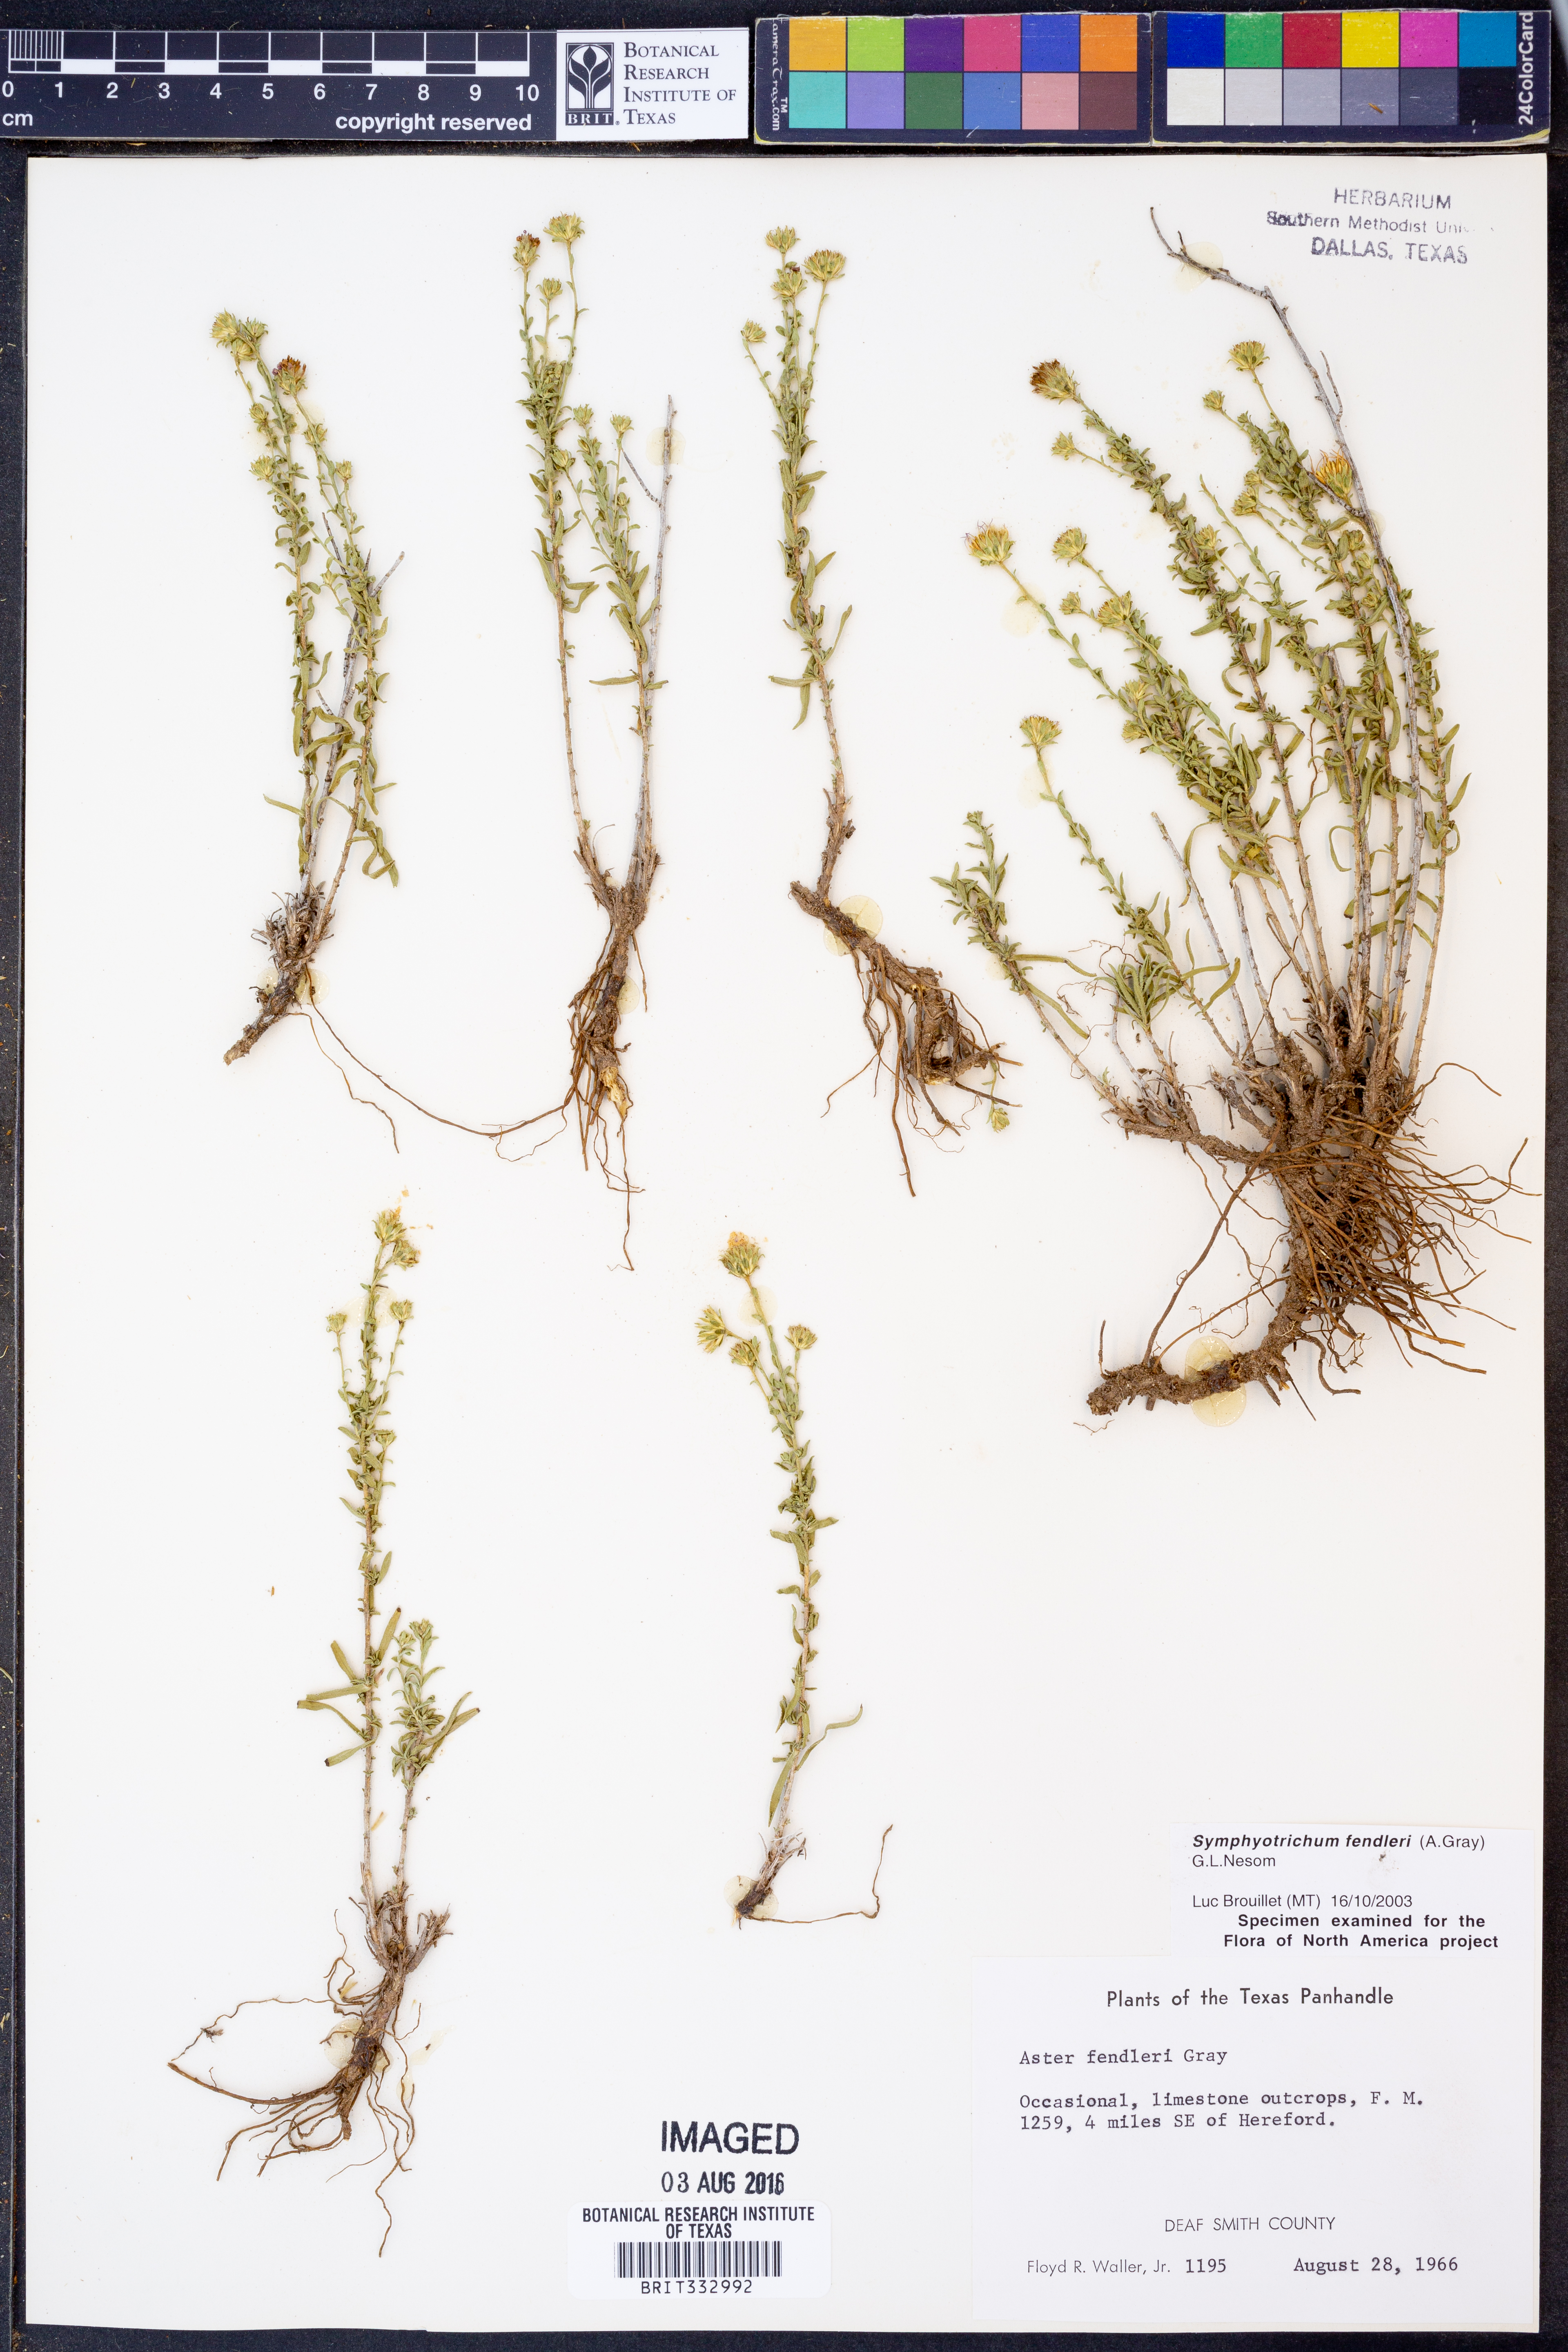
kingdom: Plantae
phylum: Tracheophyta
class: Magnoliopsida
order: Asterales
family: Asteraceae
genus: Symphyotrichum
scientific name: Symphyotrichum fendleri
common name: Fendler's aster
